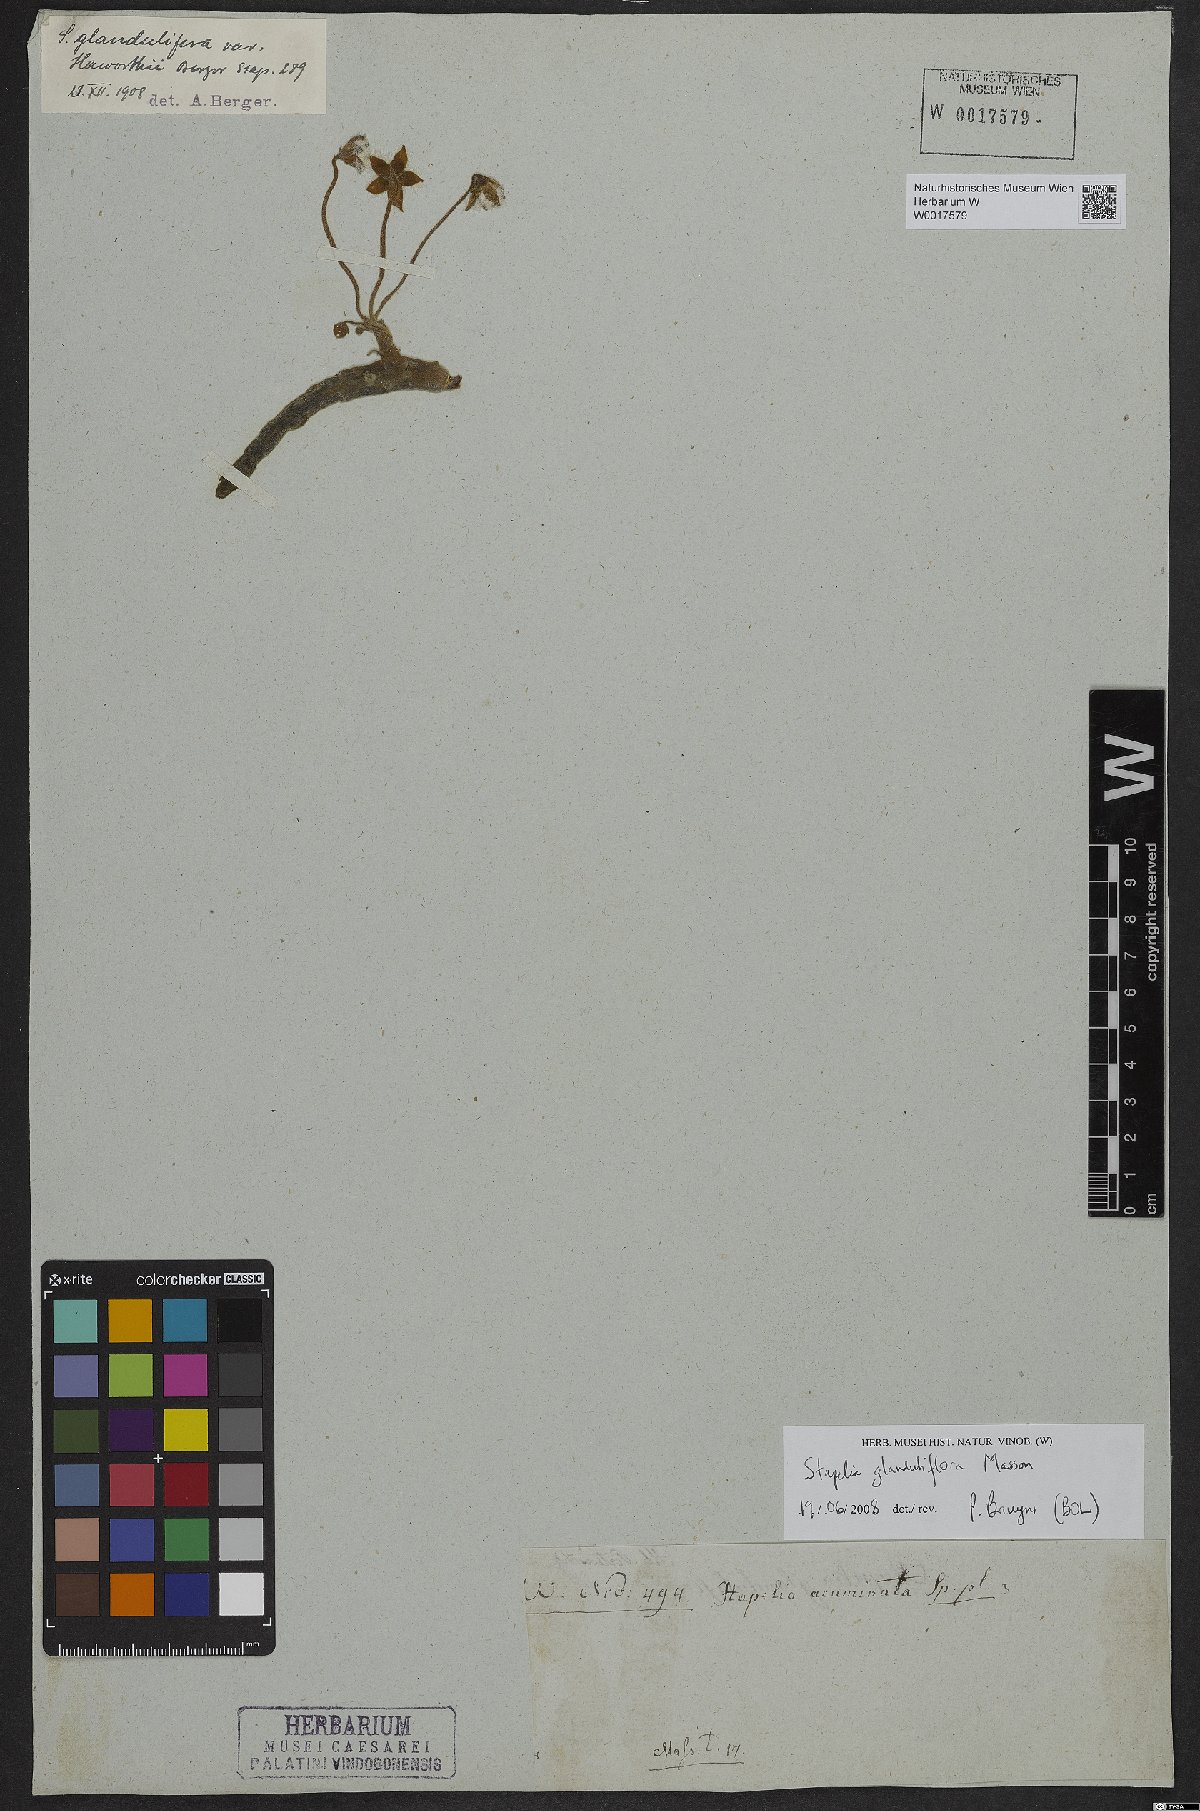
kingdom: Plantae
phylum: Tracheophyta
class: Magnoliopsida
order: Gentianales
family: Apocynaceae
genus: Ceropegia
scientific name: Ceropegia glanduliflora
